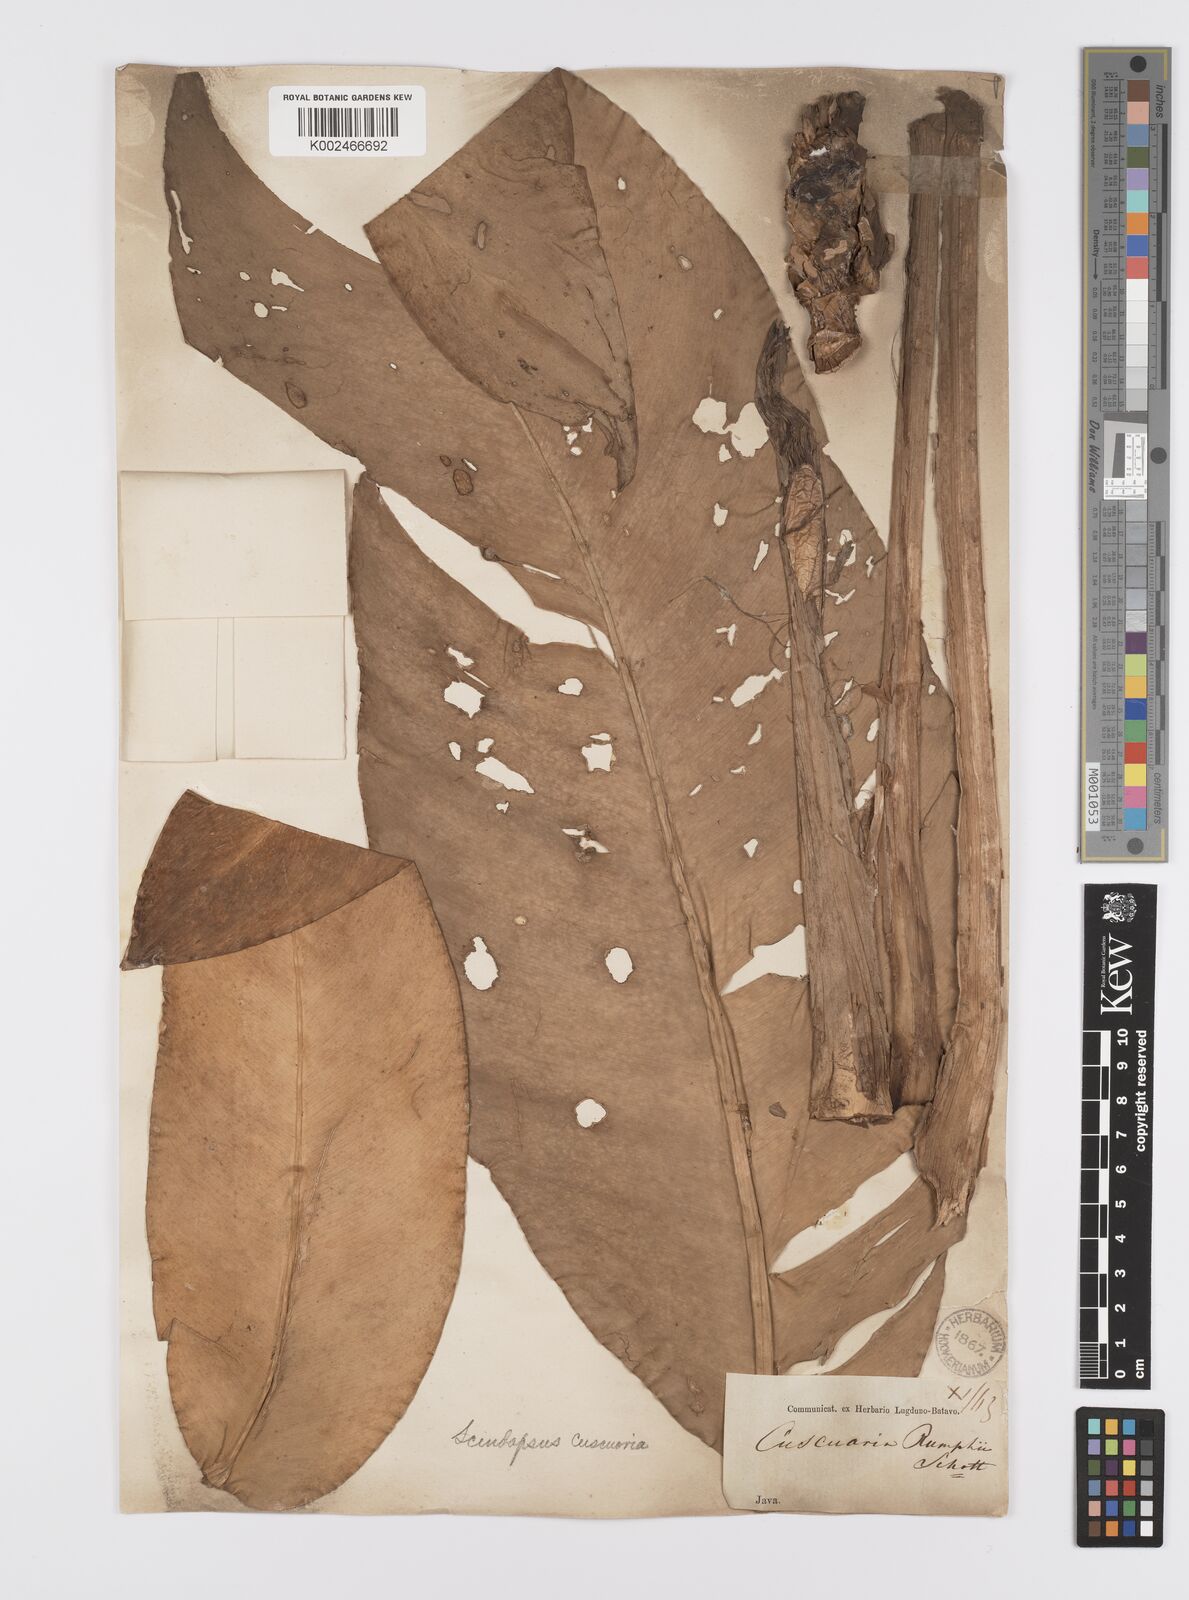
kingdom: Plantae
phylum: Tracheophyta
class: Liliopsida
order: Alismatales
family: Araceae
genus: Scindapsus
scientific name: Scindapsus cuscuaria
